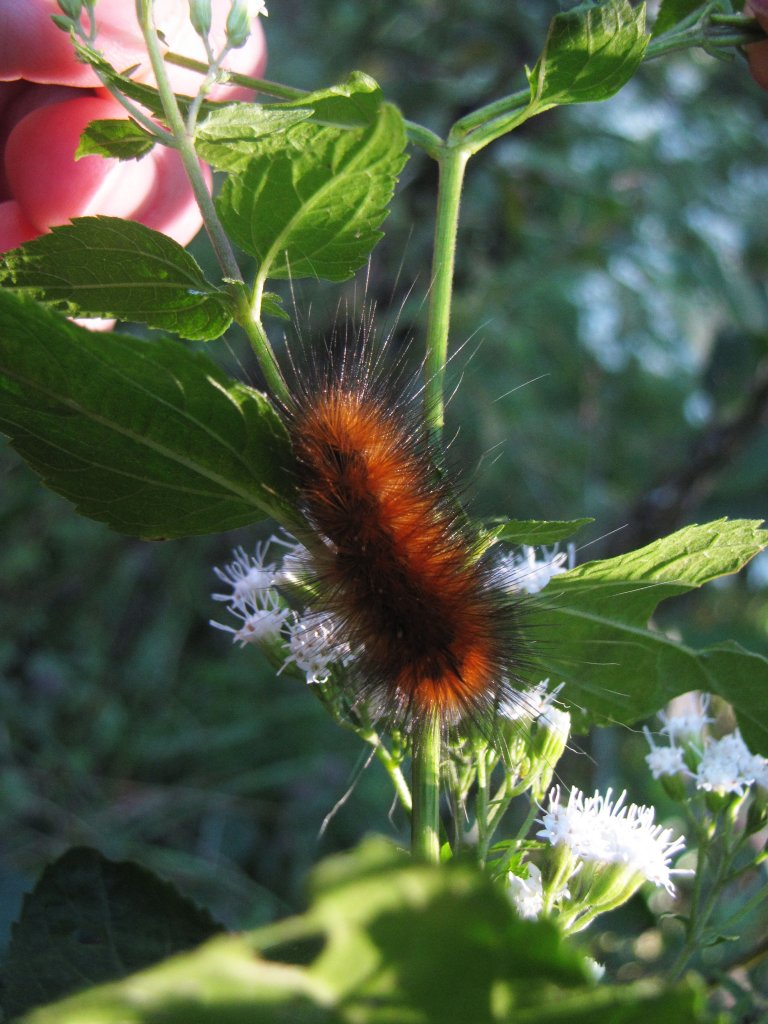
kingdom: Animalia
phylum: Arthropoda
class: Insecta
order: Lepidoptera
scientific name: Lepidoptera
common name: Butterflies
